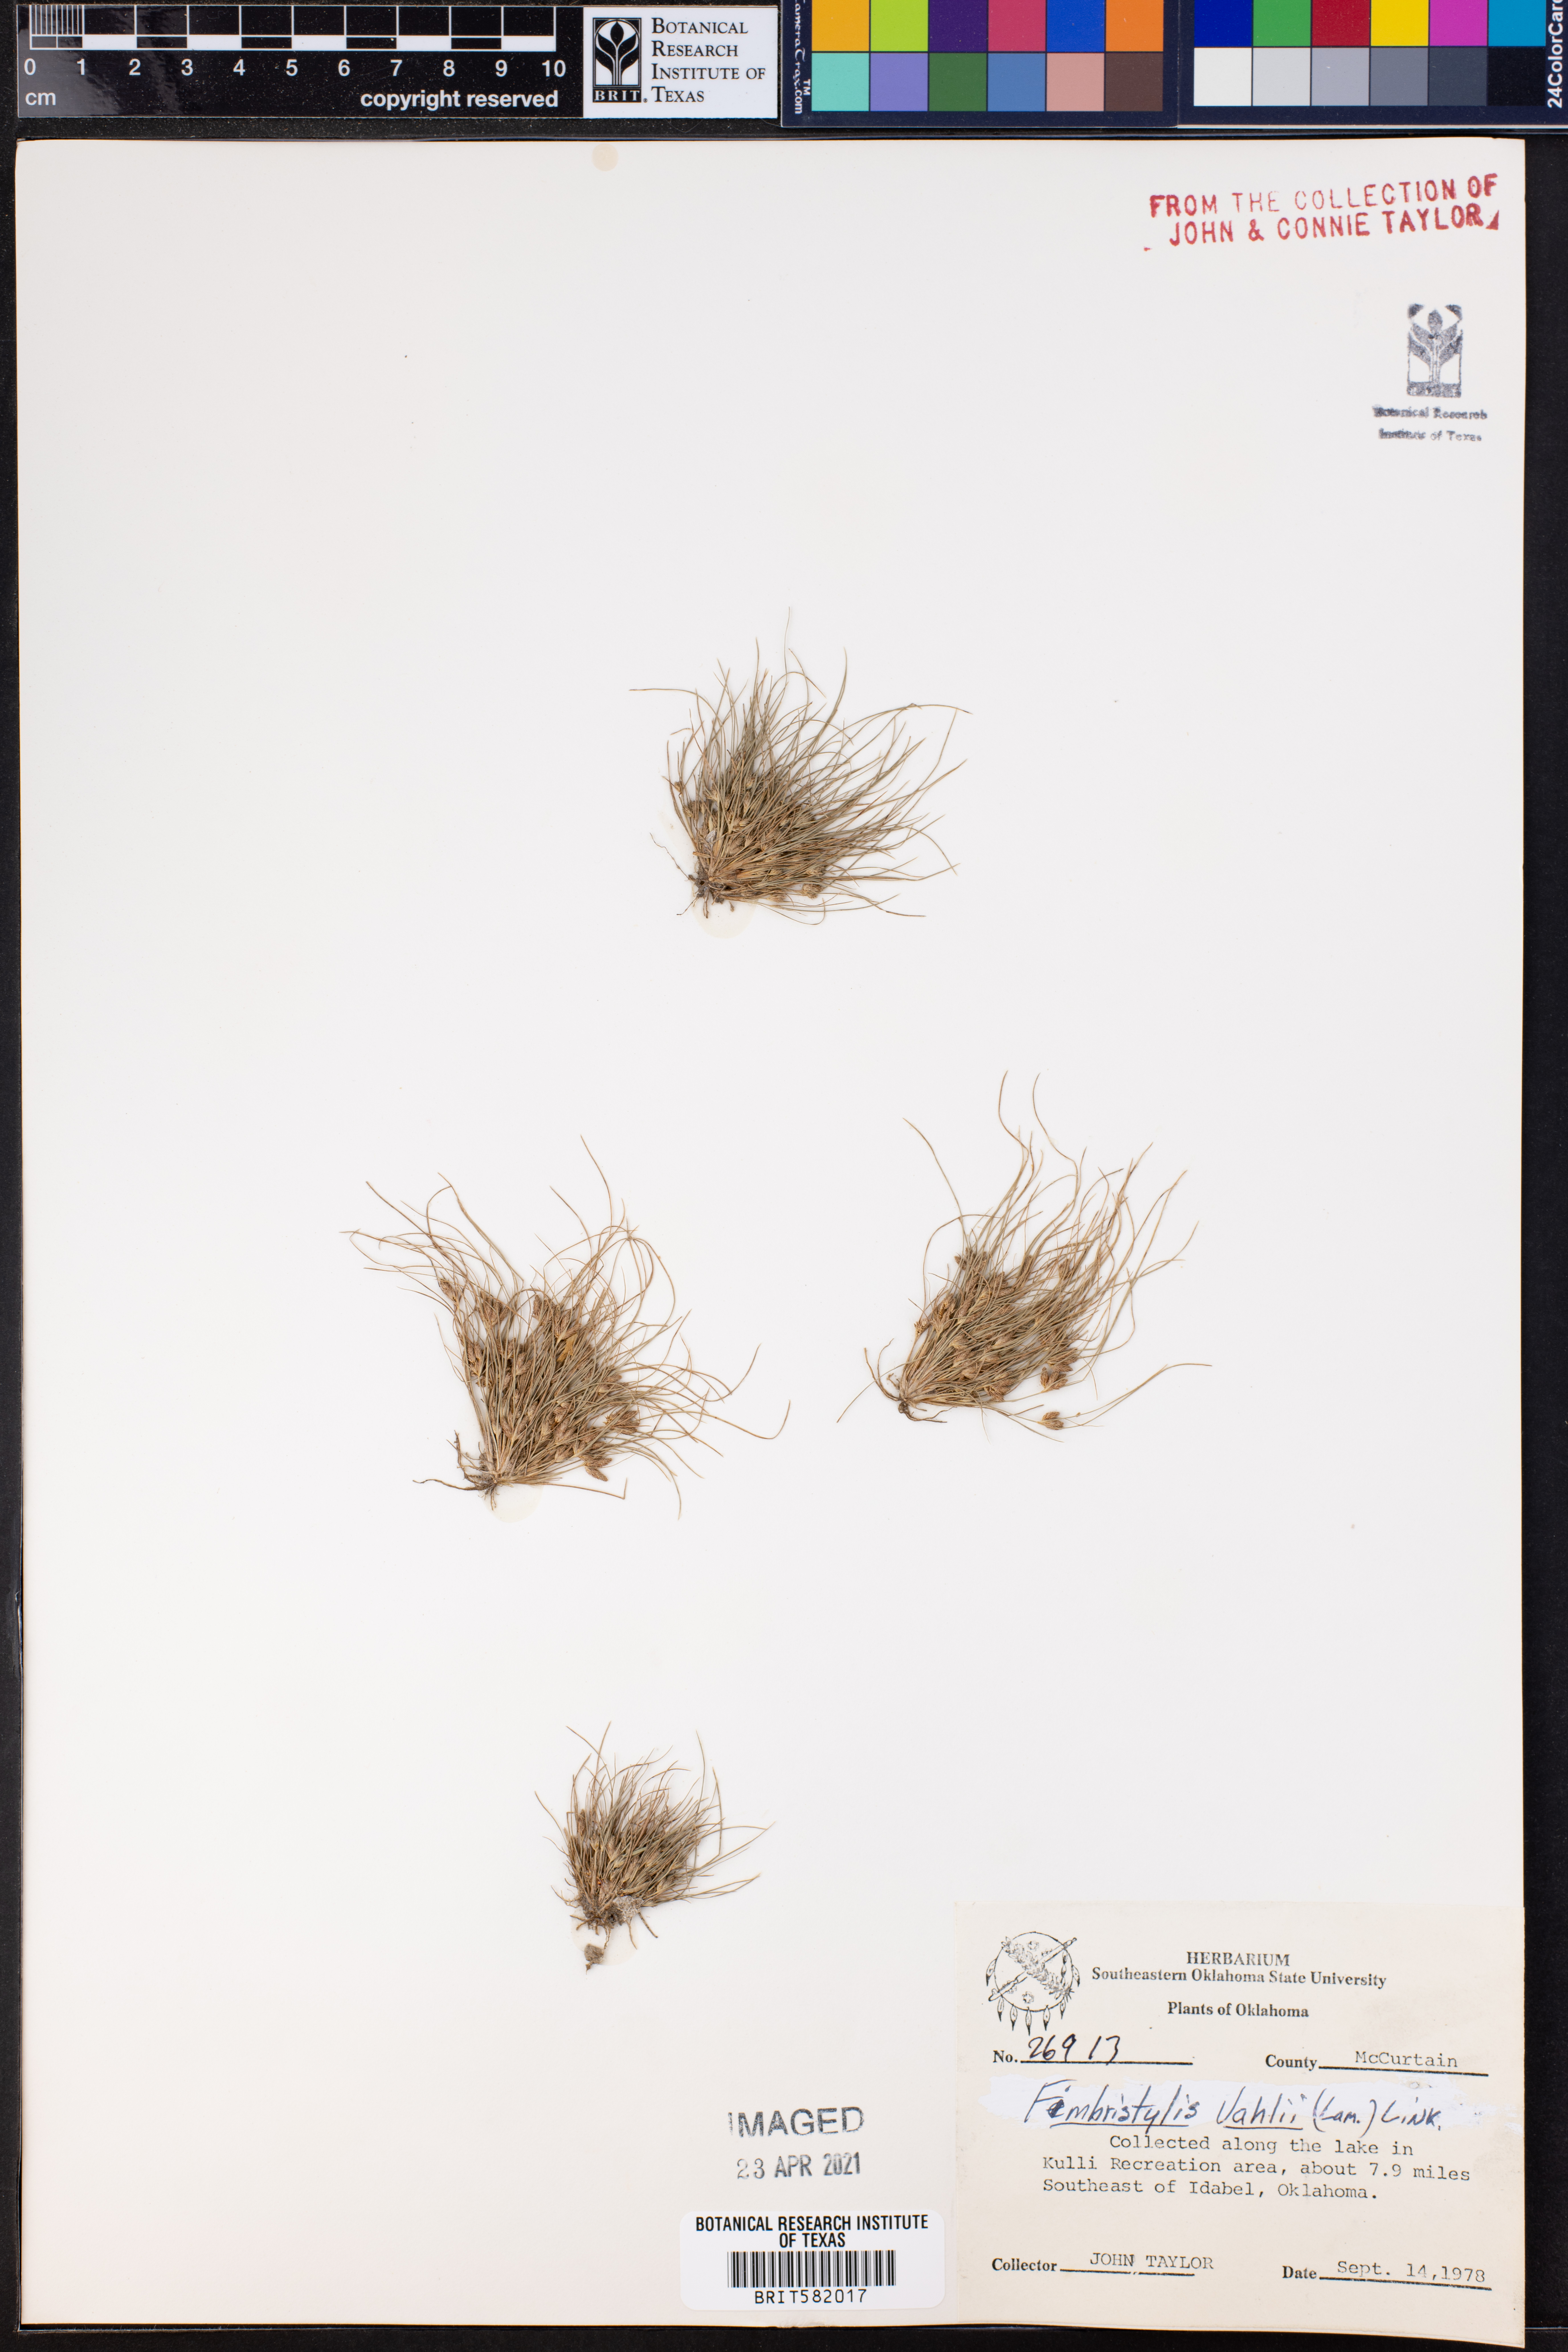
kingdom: Plantae
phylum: Tracheophyta
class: Liliopsida
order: Poales
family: Cyperaceae
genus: Fimbristylis
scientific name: Fimbristylis vahlii
